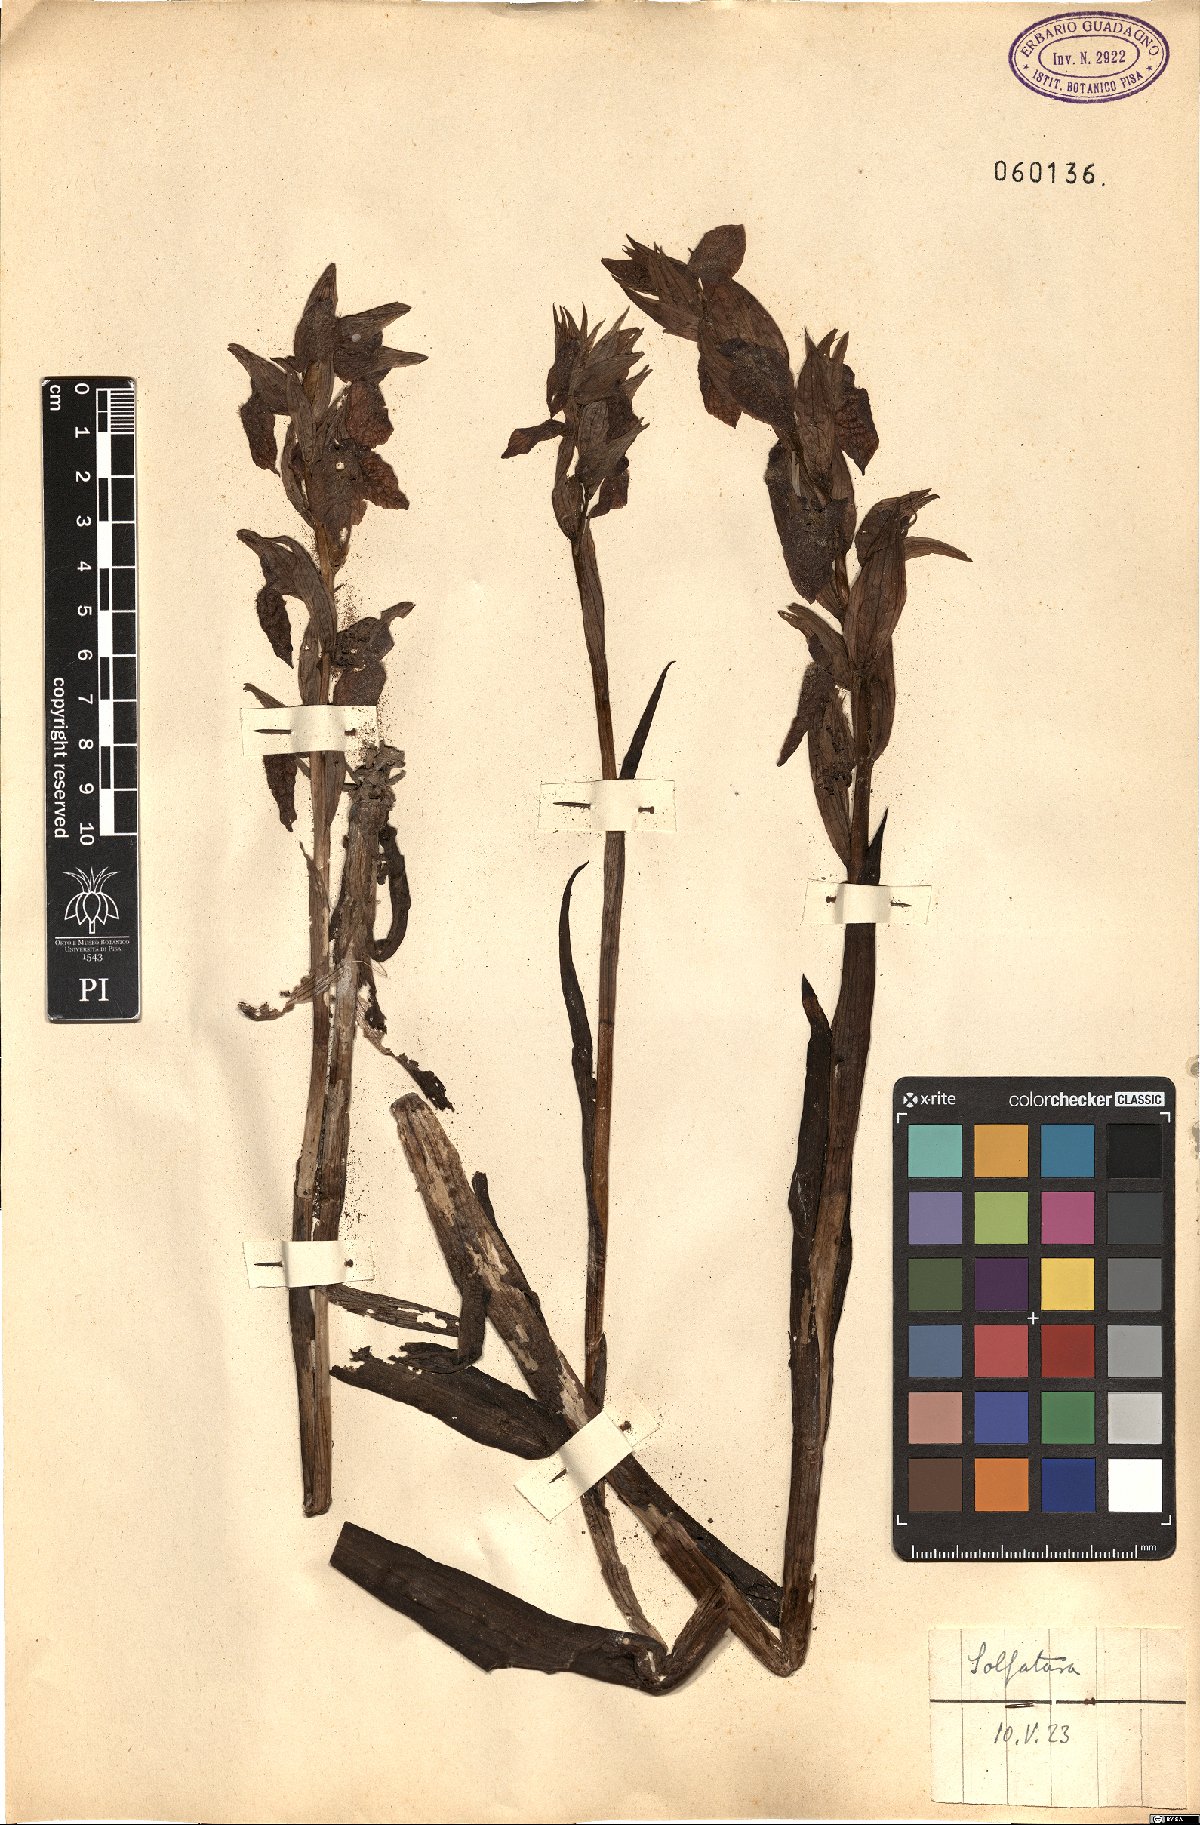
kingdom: Plantae
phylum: Tracheophyta
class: Liliopsida
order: Asparagales
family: Orchidaceae
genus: Serapias
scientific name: Serapias cordigera
